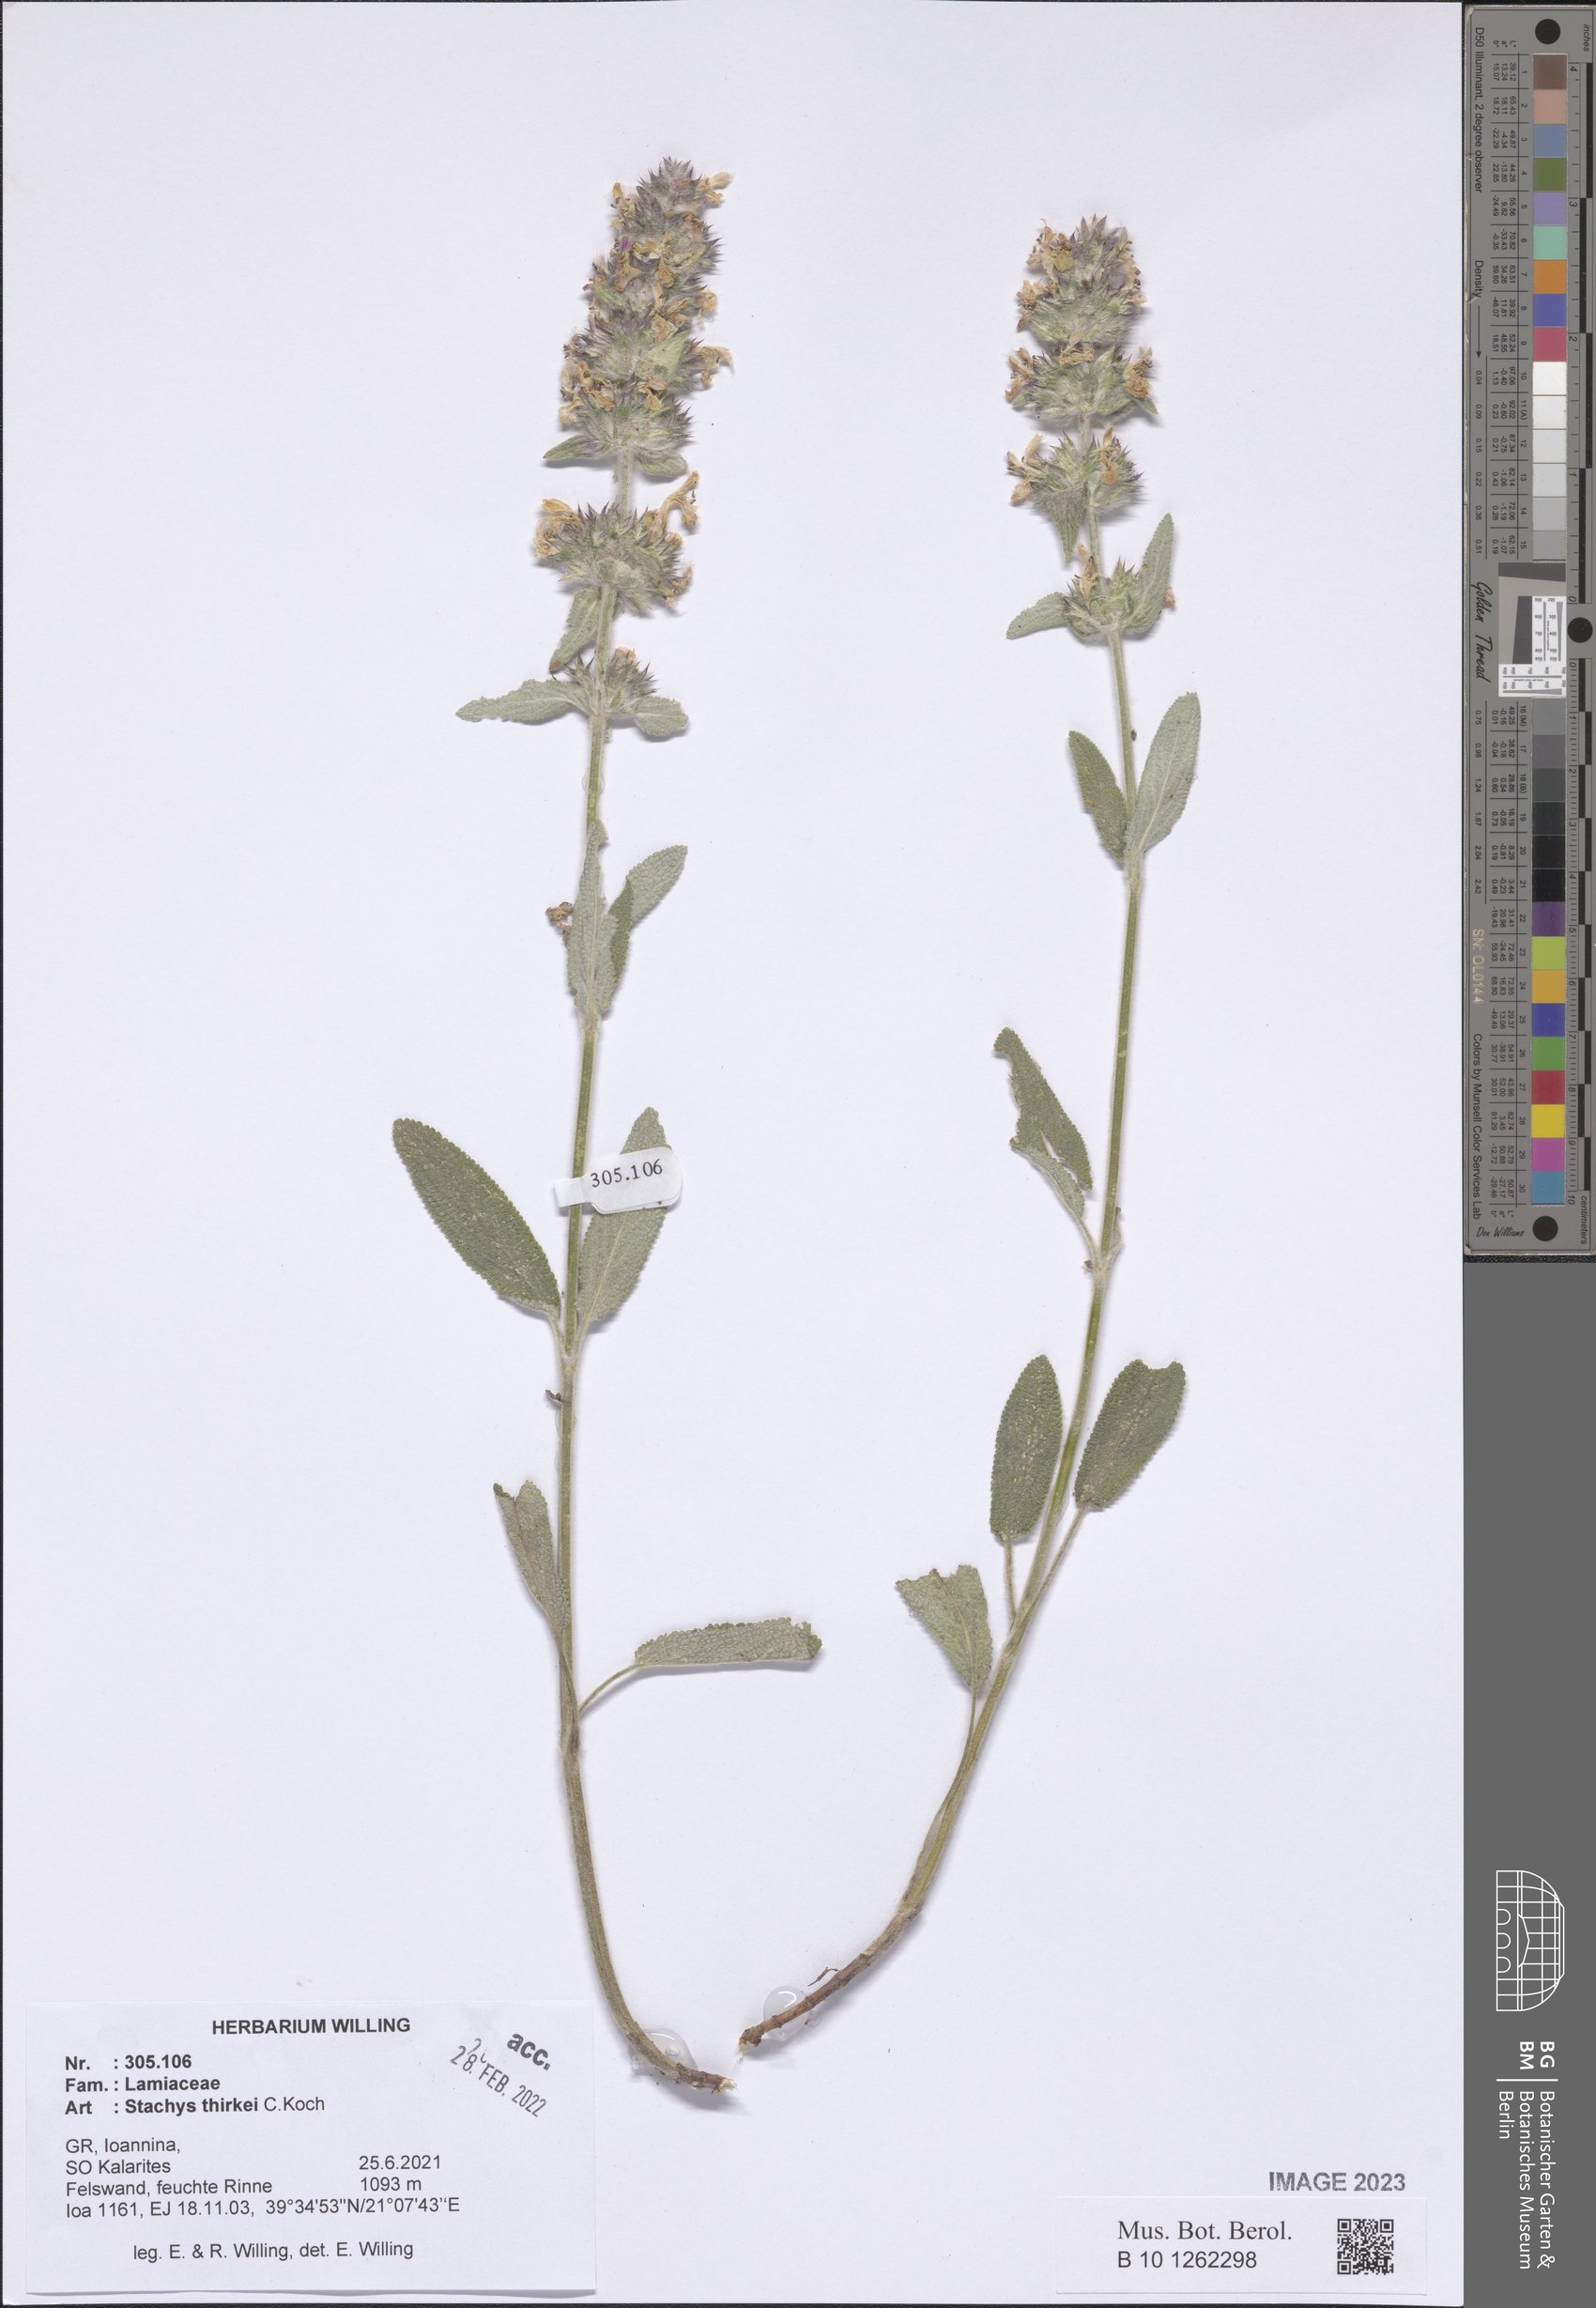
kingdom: Plantae
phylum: Tracheophyta
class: Magnoliopsida
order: Lamiales
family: Lamiaceae
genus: Stachys
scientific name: Stachys thirkei
